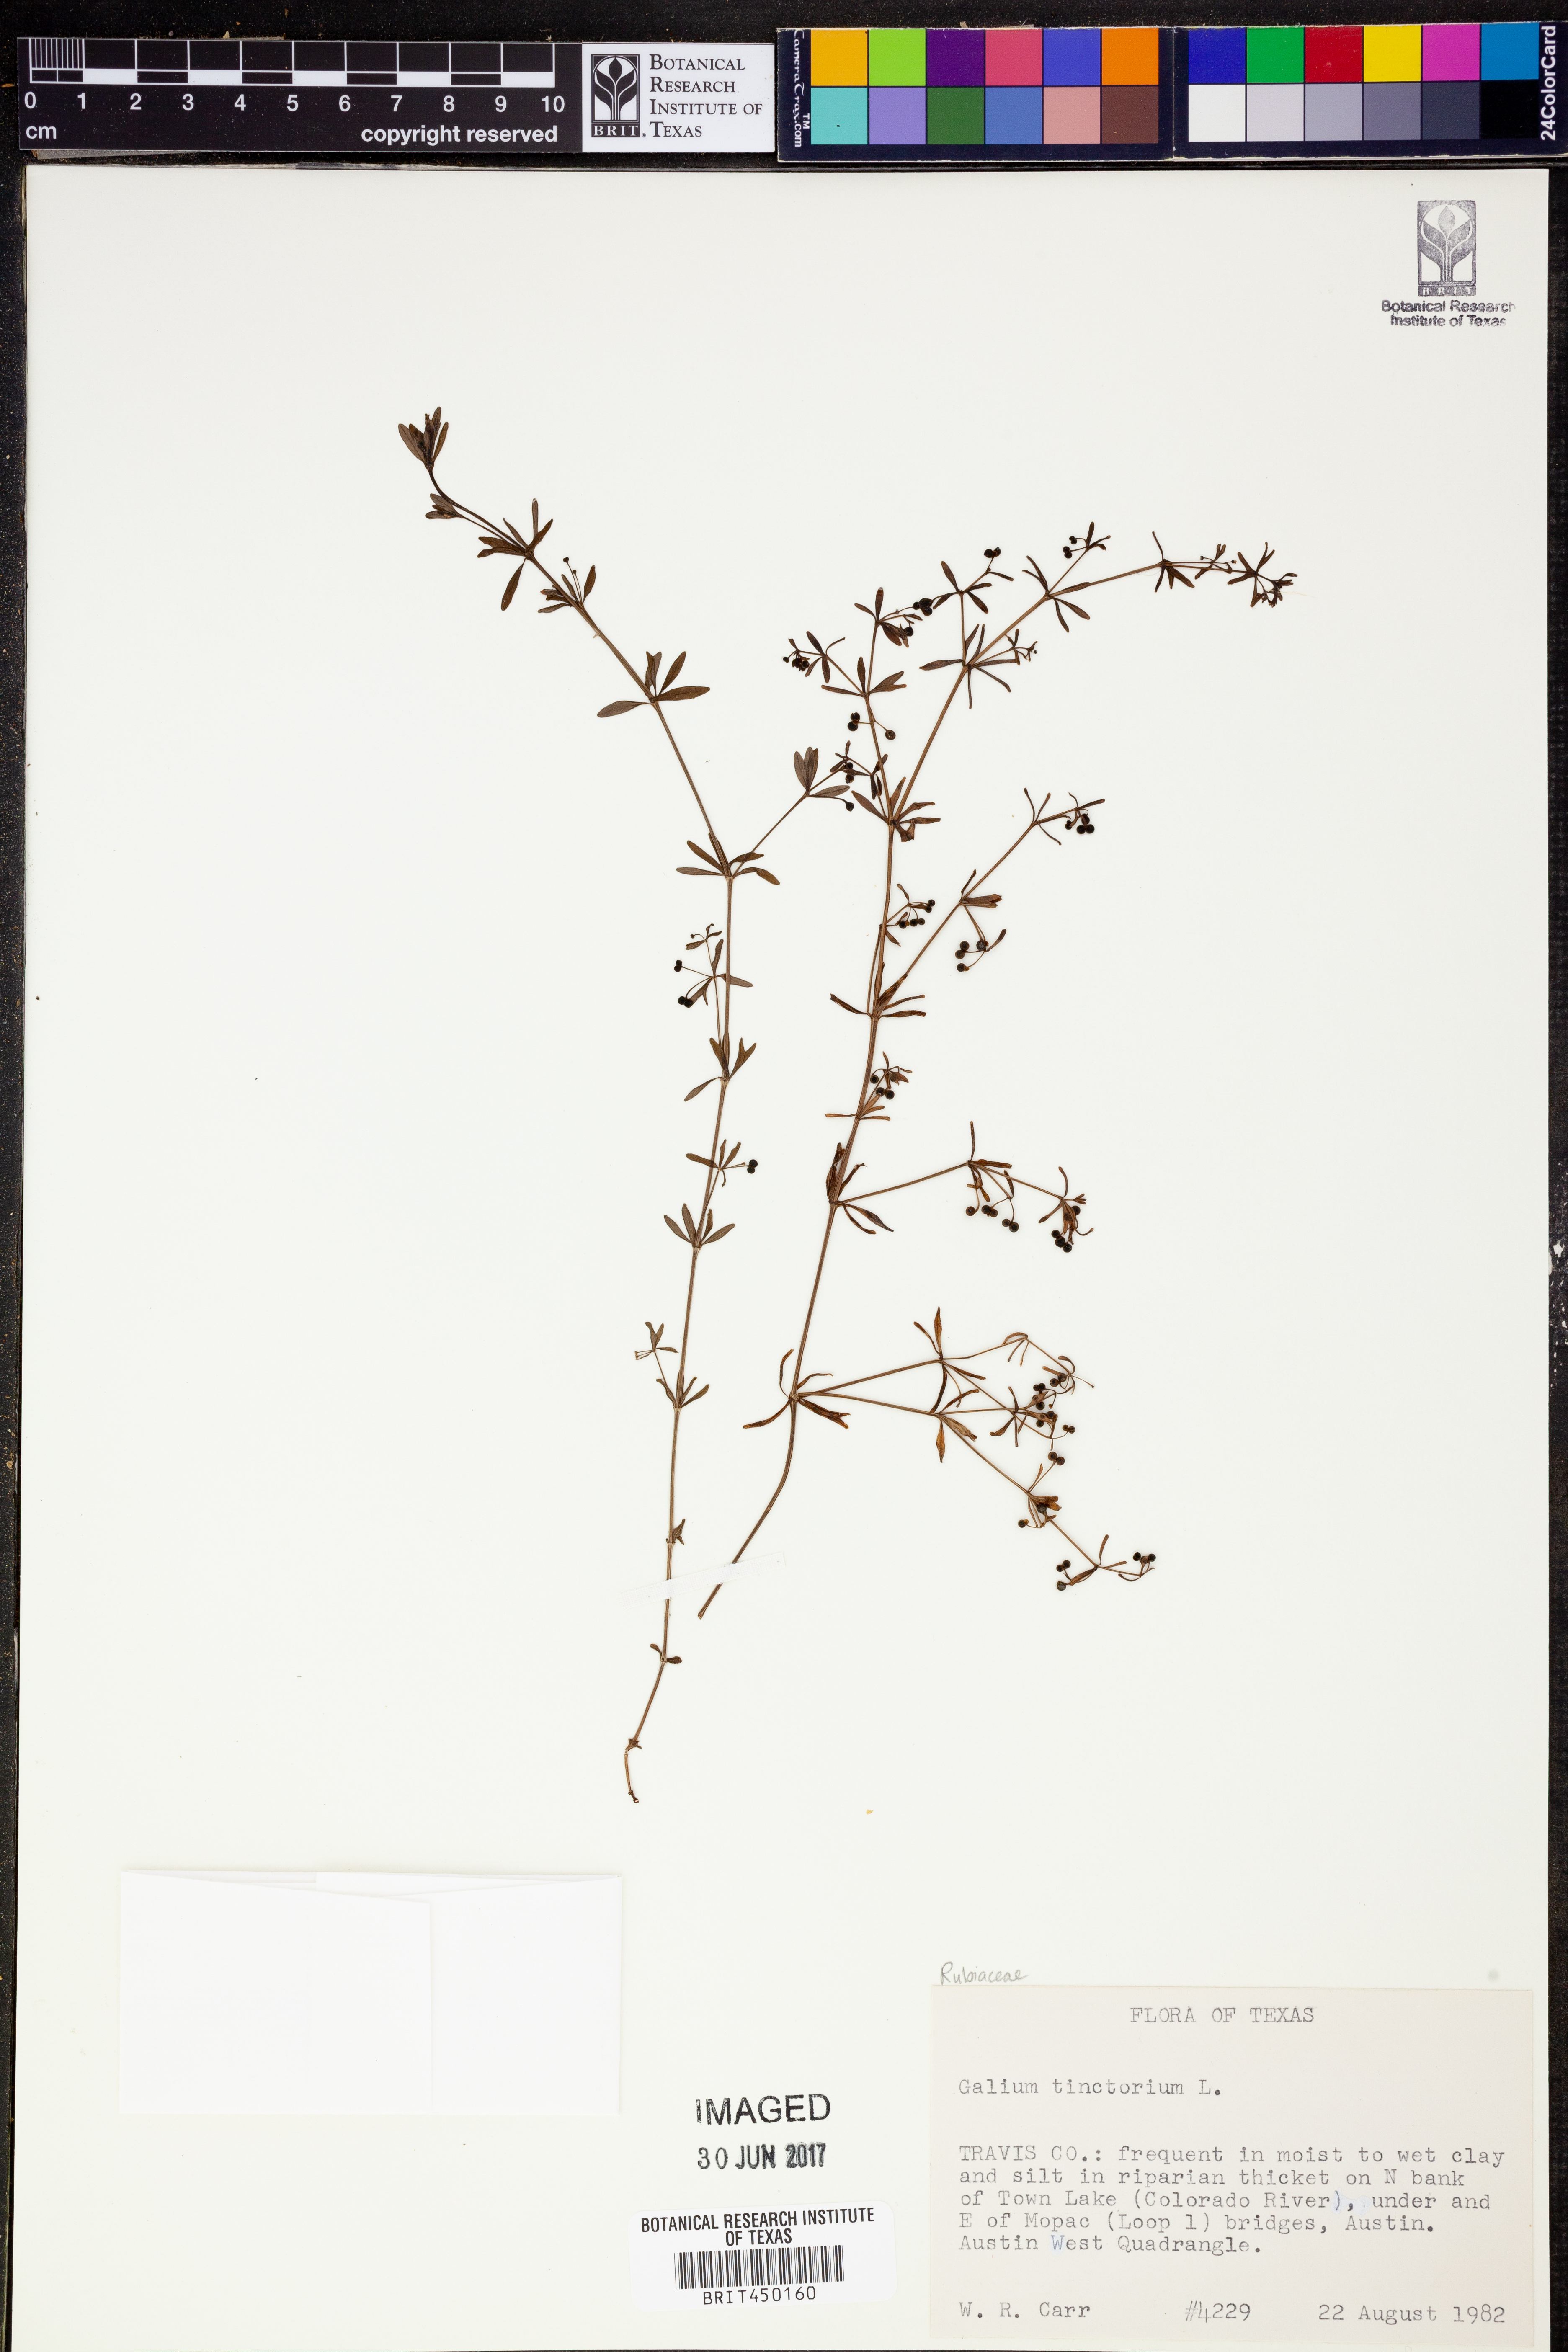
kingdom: Plantae
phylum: Tracheophyta
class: Magnoliopsida
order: Gentianales
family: Rubiaceae
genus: Asperula
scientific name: Asperula tinctoria
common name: Dyer's woodruff
